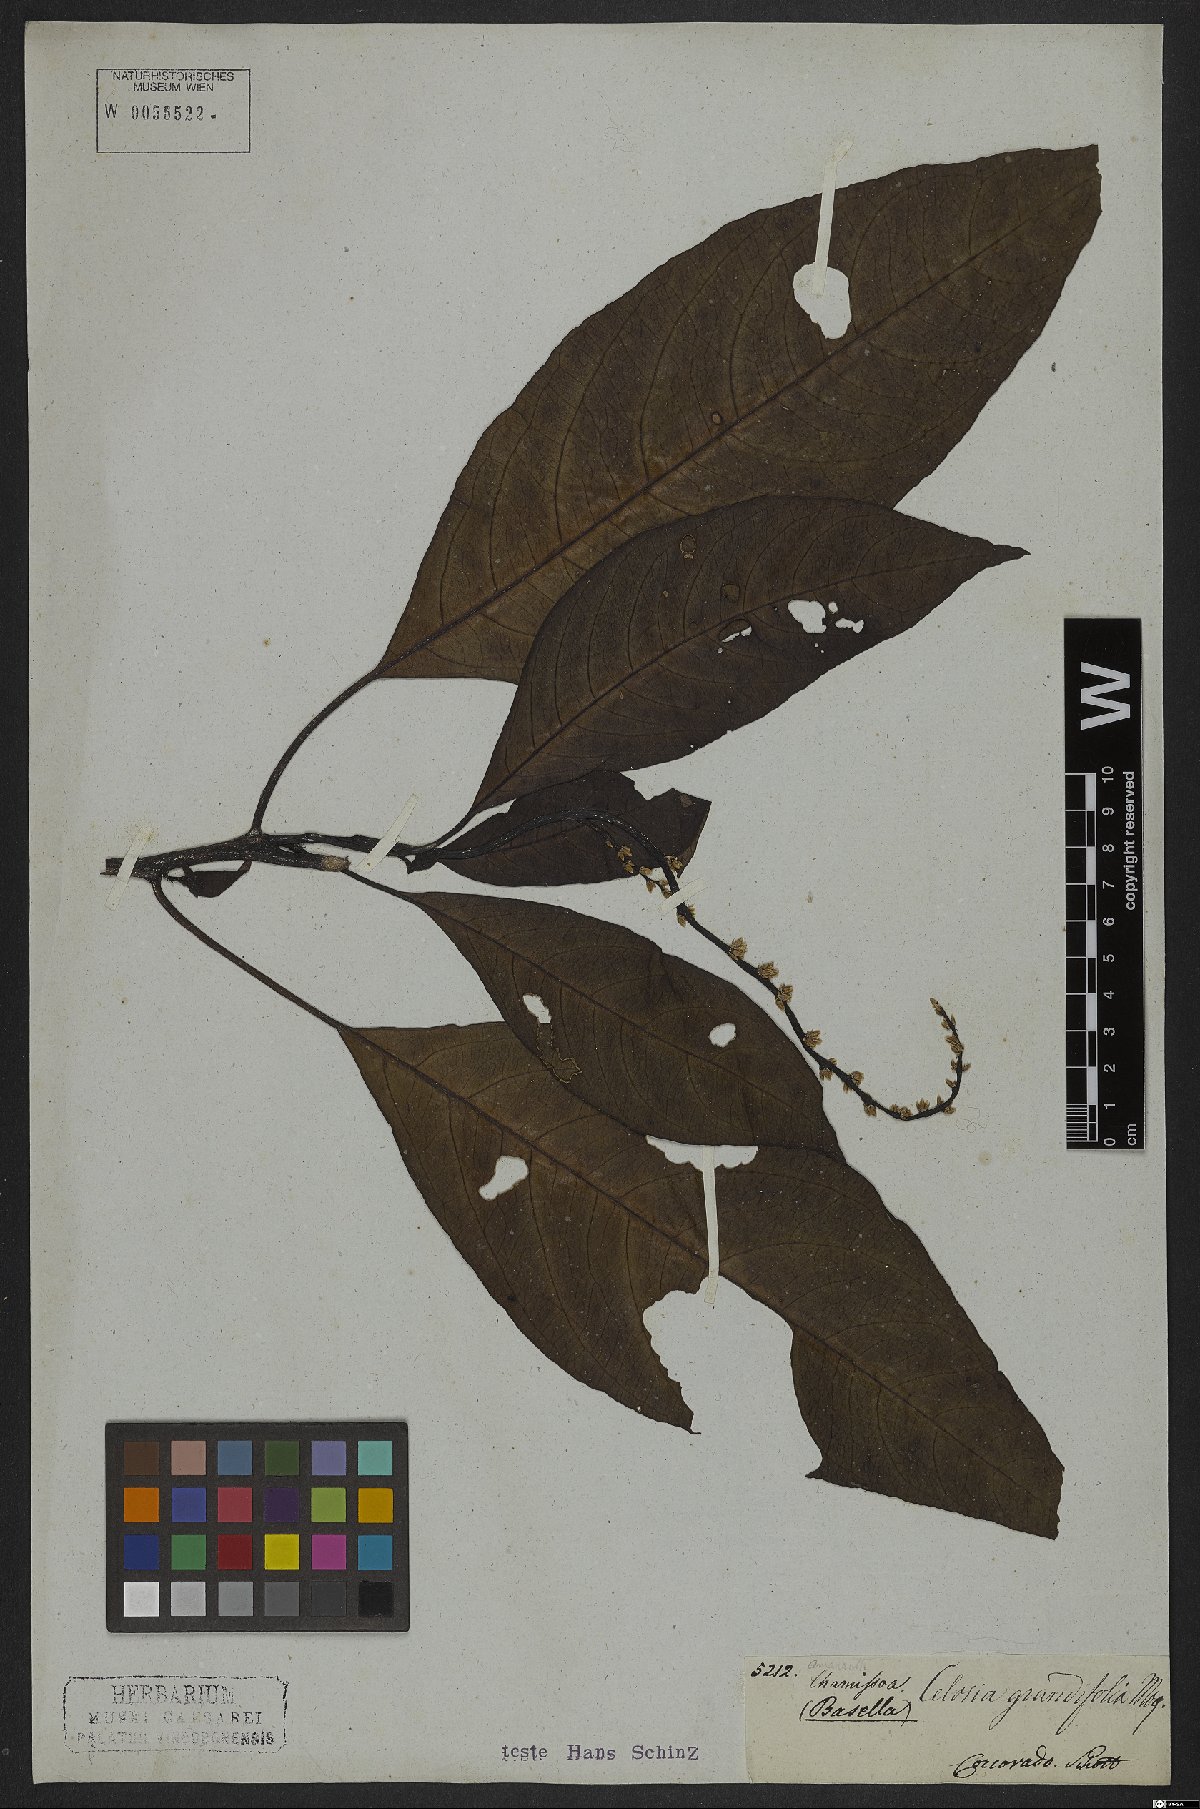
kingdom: Plantae
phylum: Tracheophyta
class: Magnoliopsida
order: Caryophyllales
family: Amaranthaceae
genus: Celosia
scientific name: Celosia grandifolia
